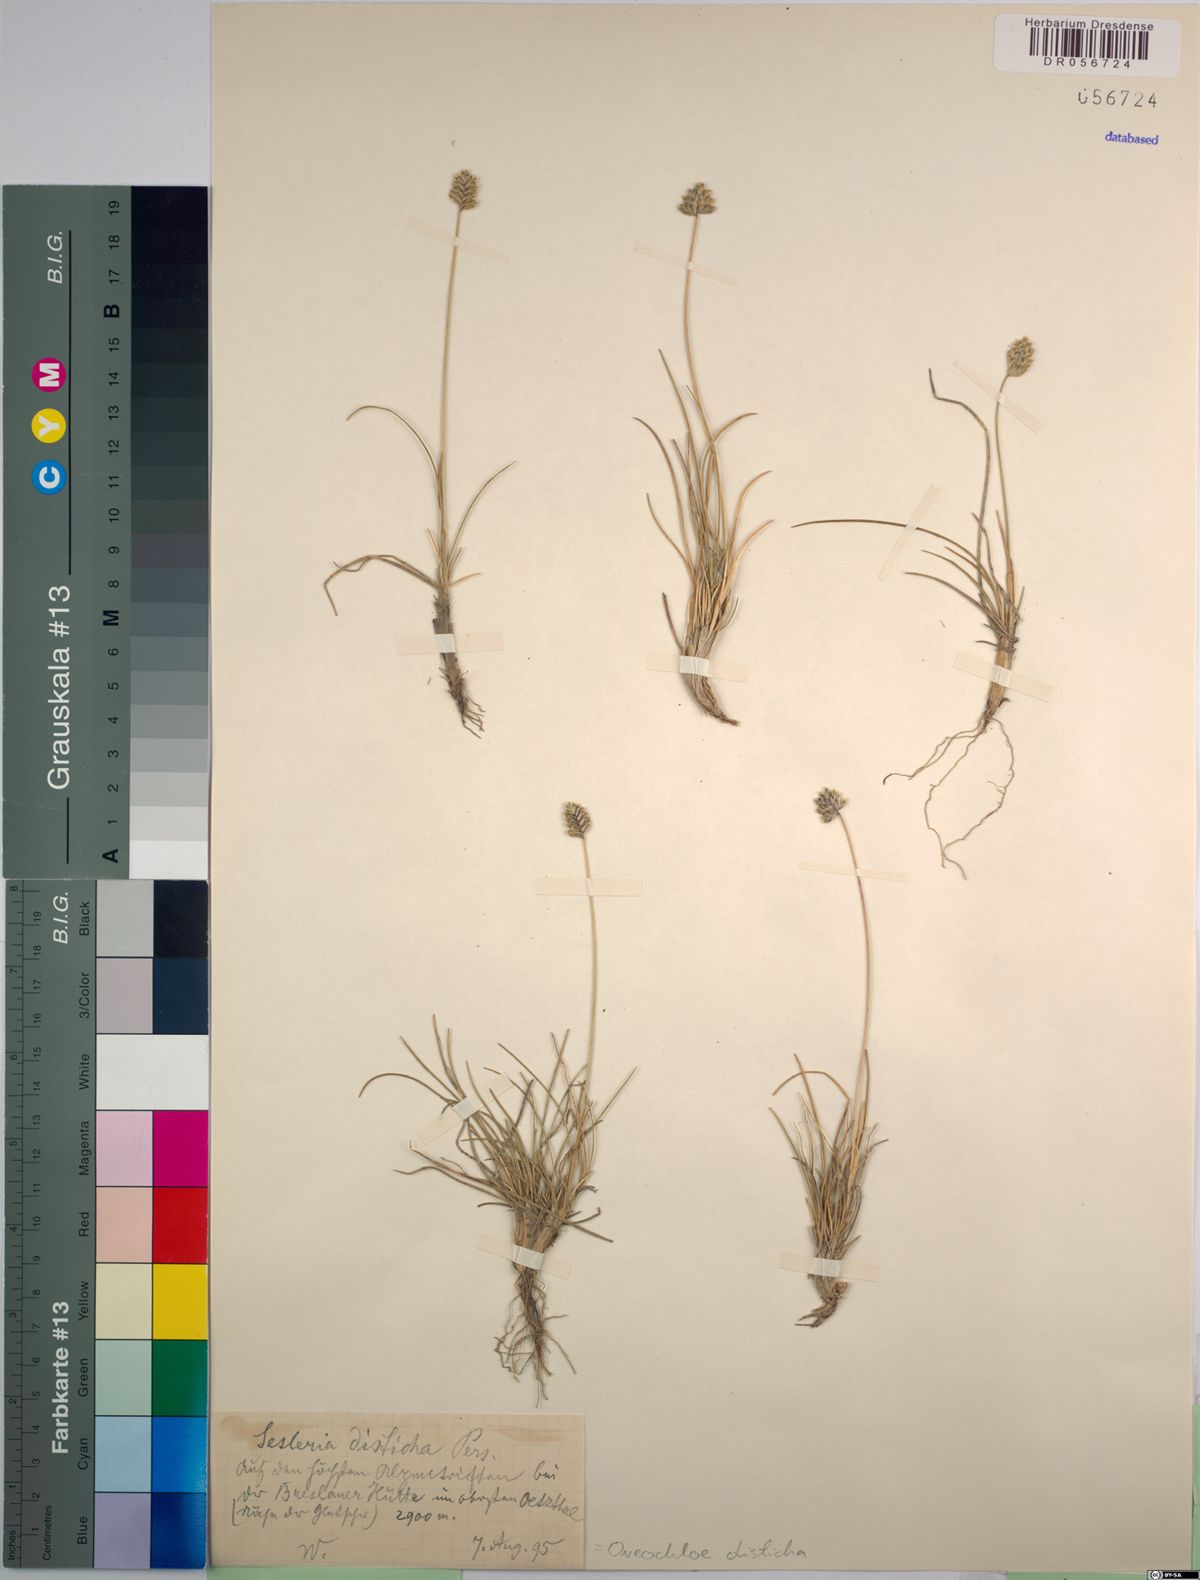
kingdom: Plantae
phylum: Tracheophyta
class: Liliopsida
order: Poales
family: Poaceae
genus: Oreochloa
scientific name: Oreochloa disticha
